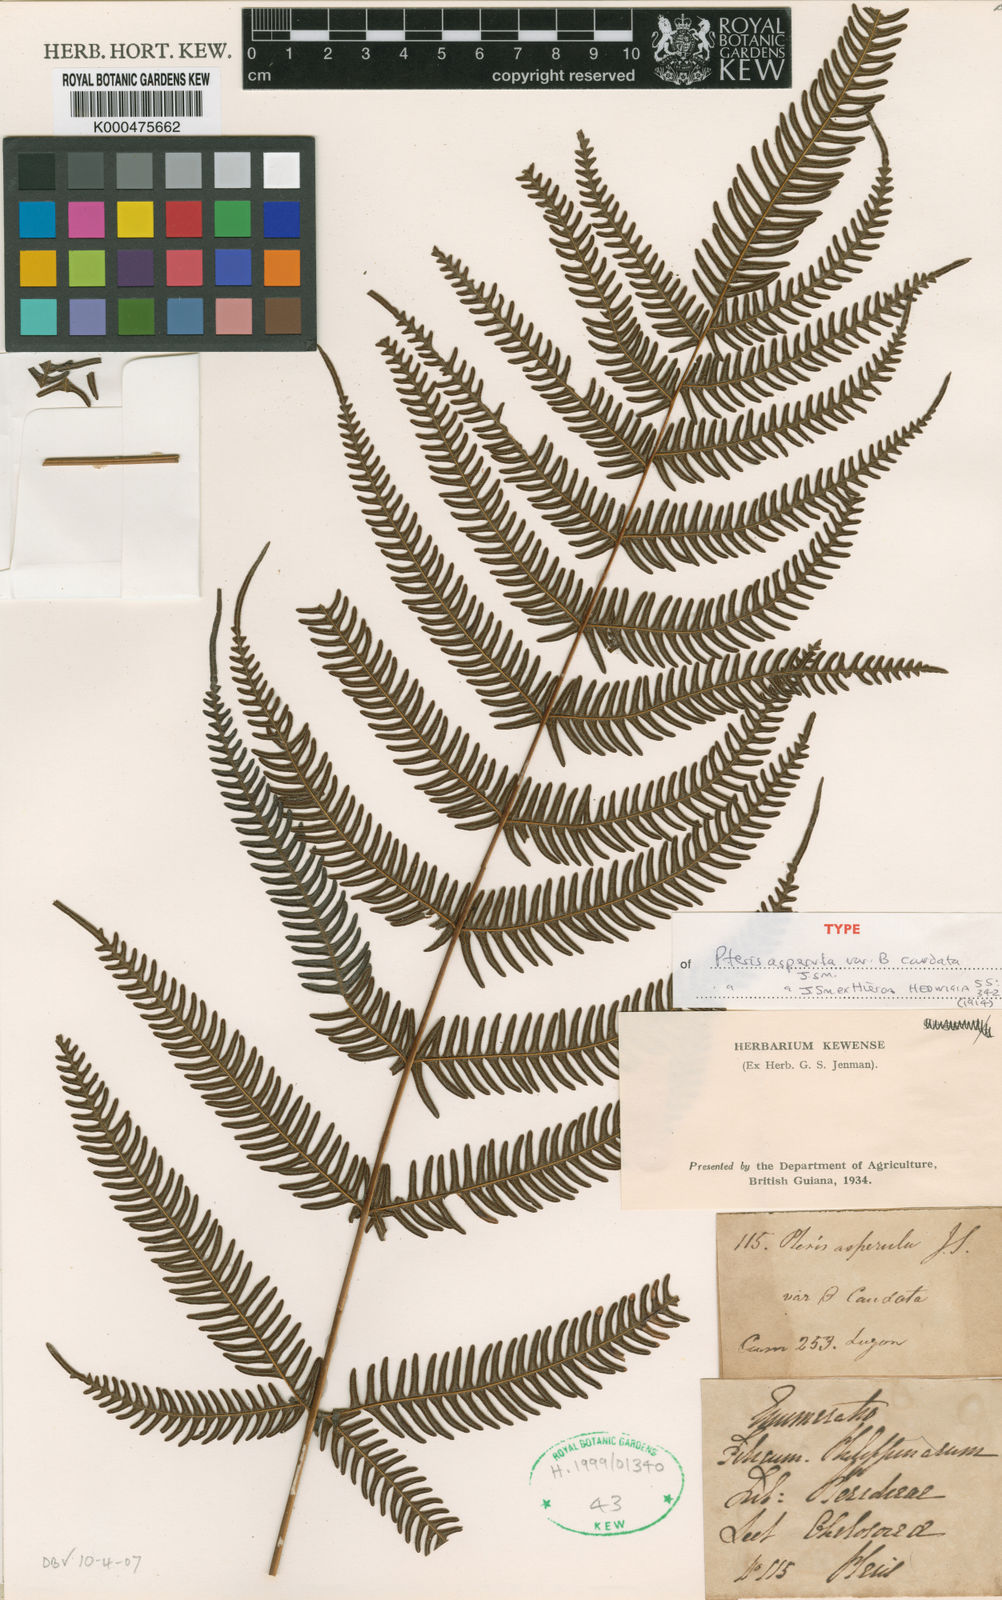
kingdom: Plantae
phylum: Tracheophyta
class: Polypodiopsida
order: Polypodiales
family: Pteridaceae
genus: Pteris
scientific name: Pteris oppositipinnata
